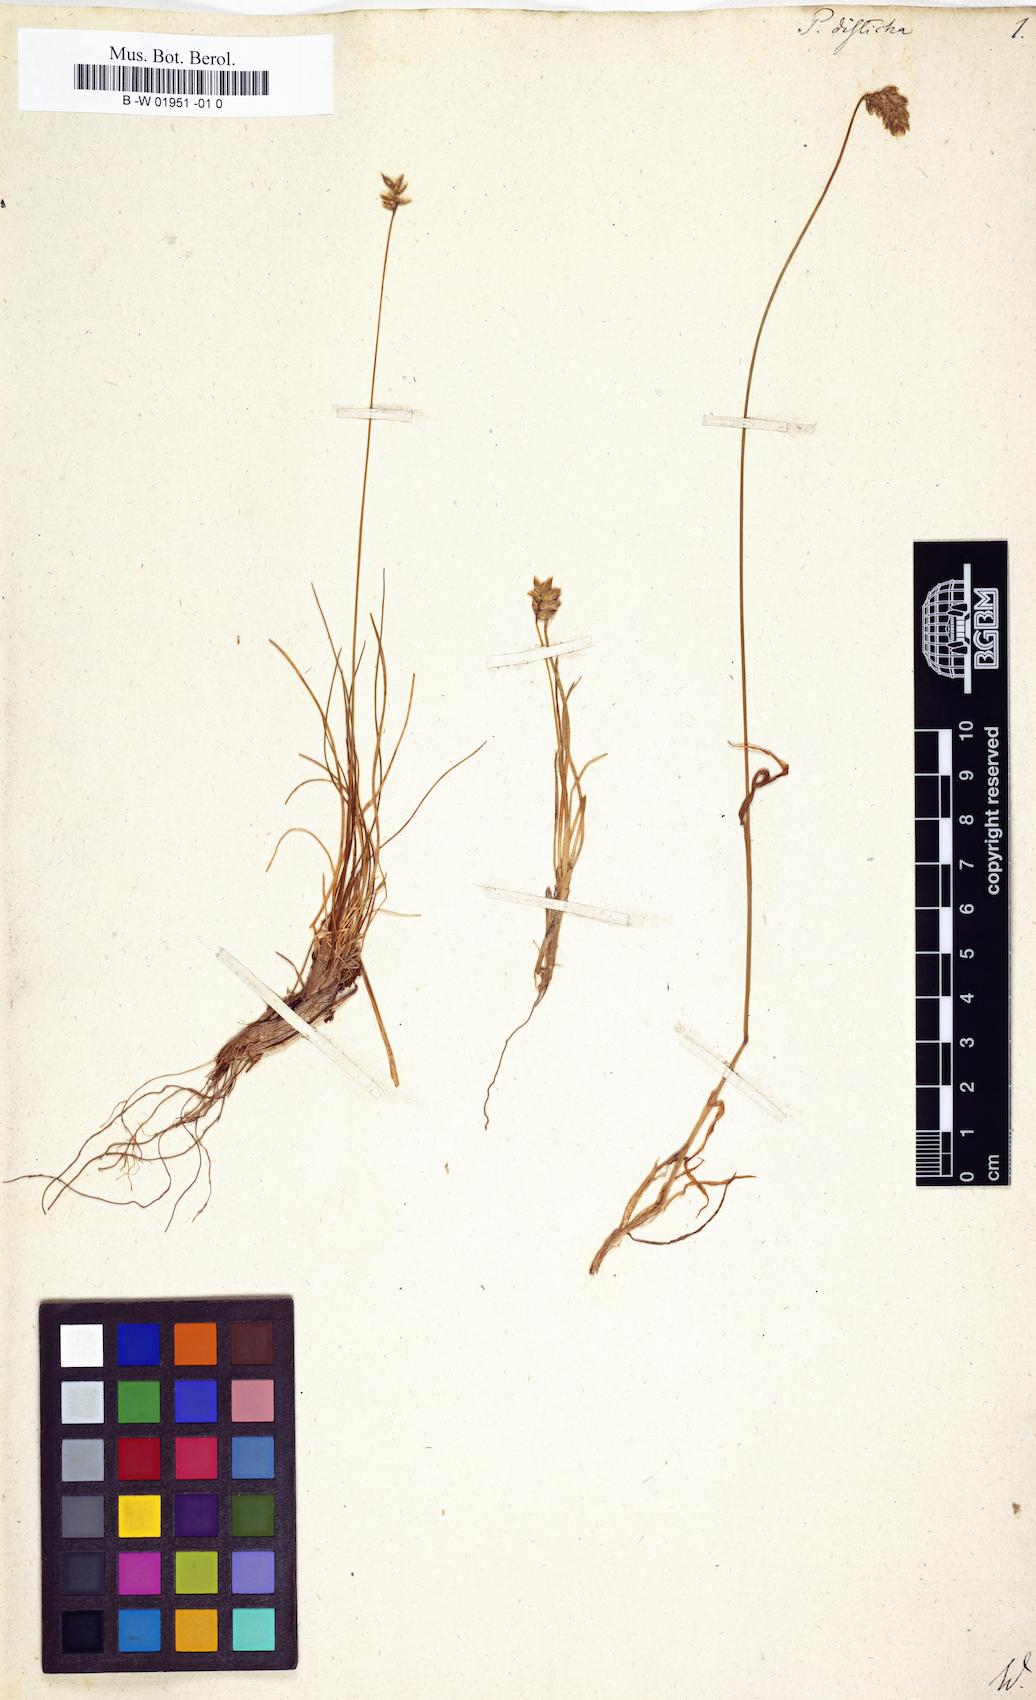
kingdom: Plantae
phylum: Tracheophyta
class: Liliopsida
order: Poales
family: Poaceae
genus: Oreochloa
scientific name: Oreochloa disticha
